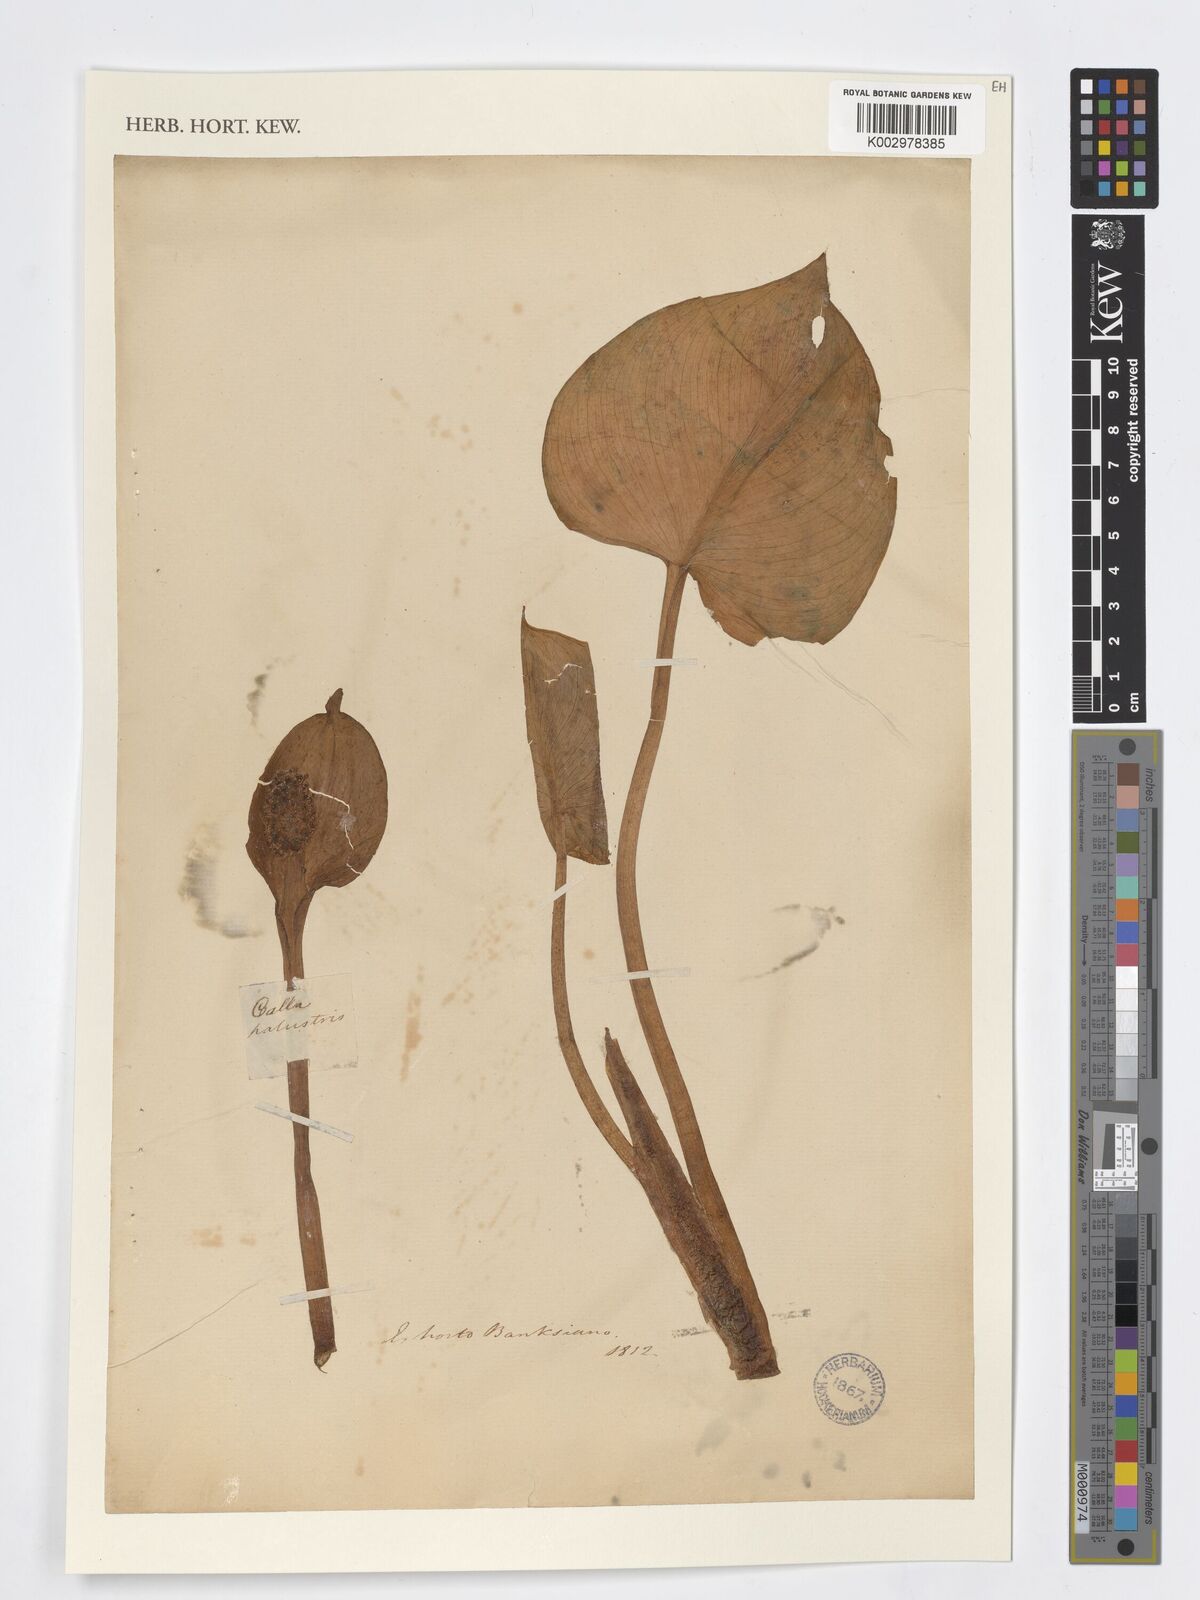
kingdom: Plantae
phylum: Tracheophyta
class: Liliopsida
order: Alismatales
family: Araceae
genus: Calla
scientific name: Calla palustris
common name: Bog arum
